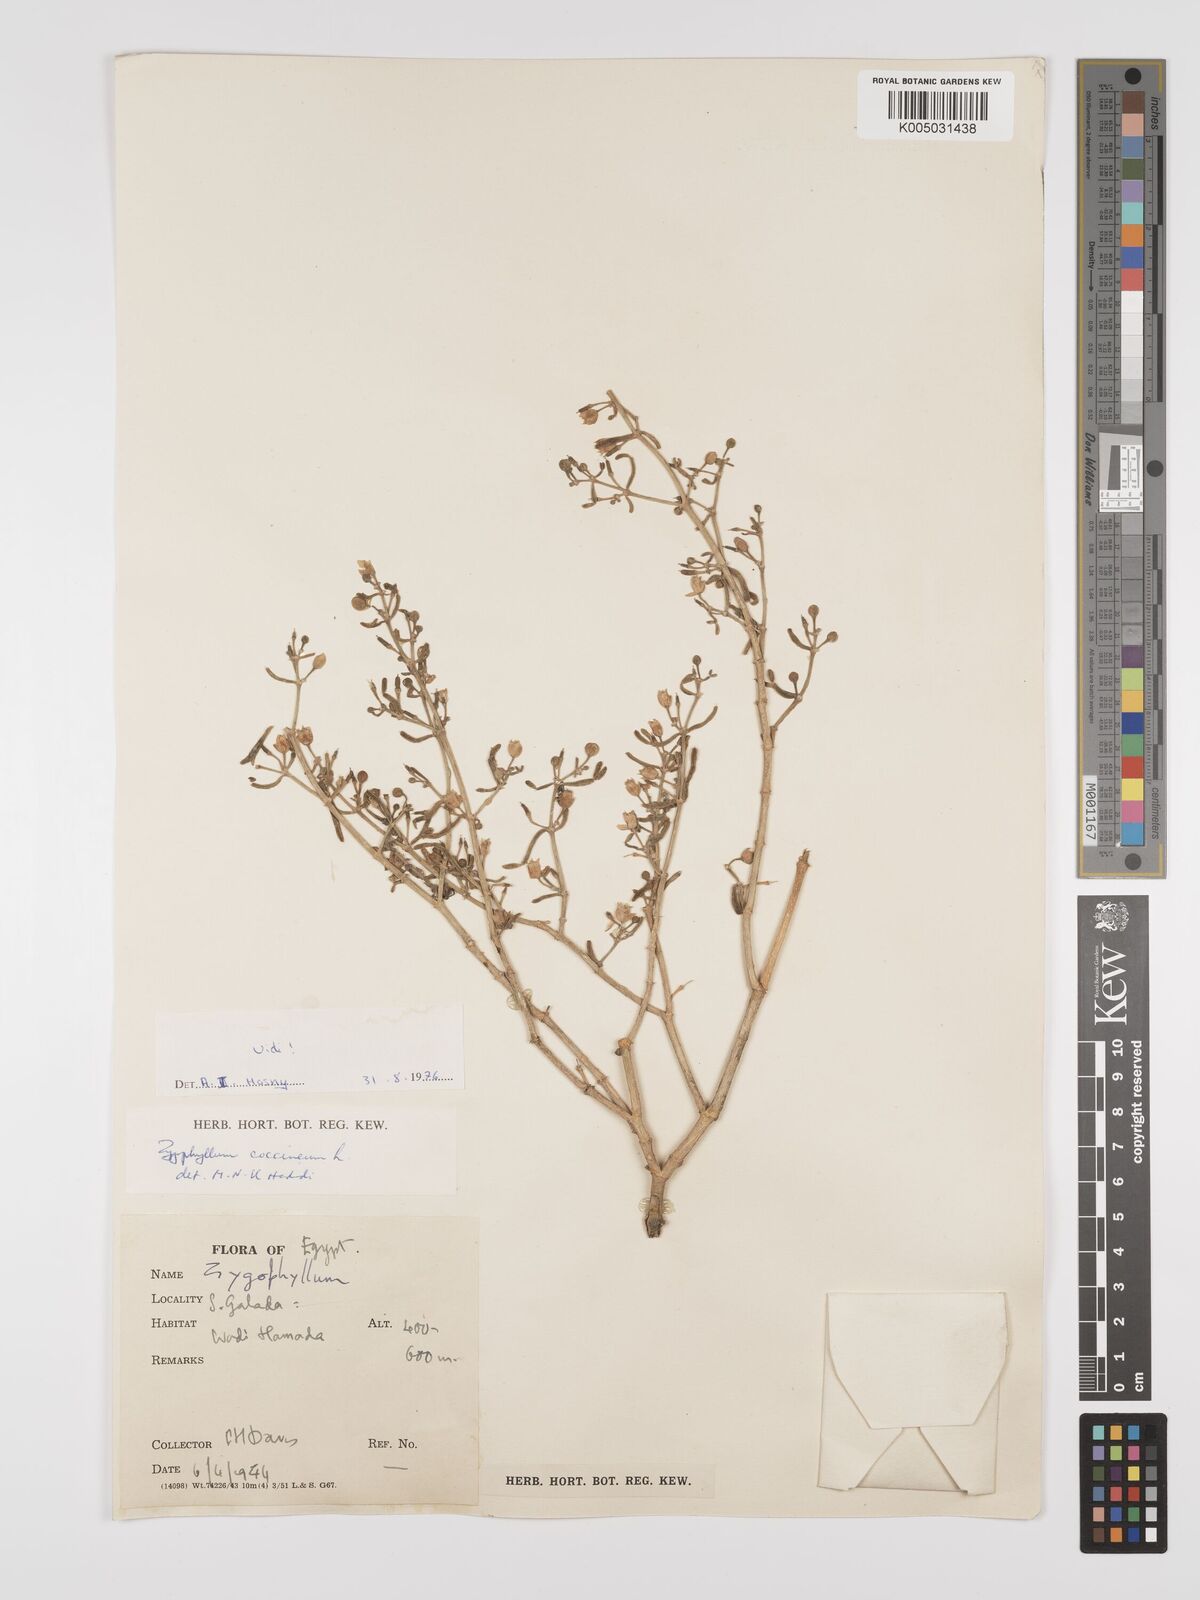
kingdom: Plantae
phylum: Tracheophyta
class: Magnoliopsida
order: Zygophyllales
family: Zygophyllaceae
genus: Zygophyllum
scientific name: Zygophyllum
